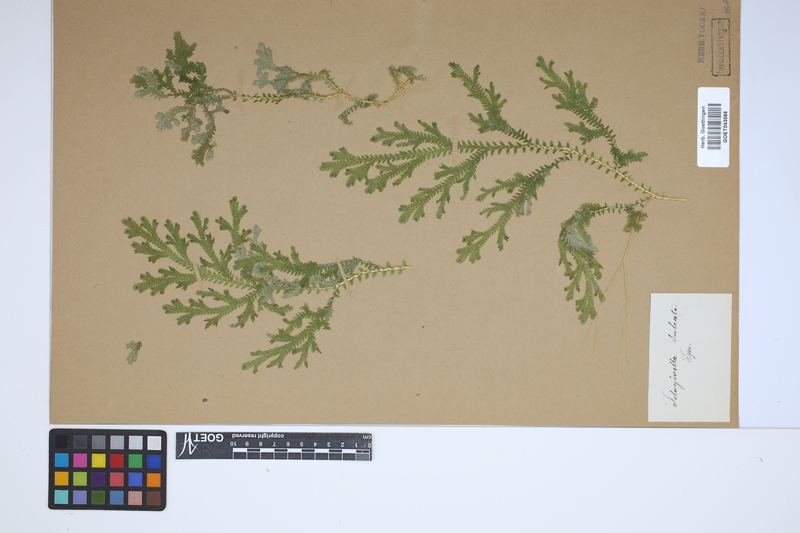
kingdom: Plantae
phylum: Tracheophyta
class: Lycopodiopsida
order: Selaginellales
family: Selaginellaceae
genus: Selaginella
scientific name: Selaginella sulcata
